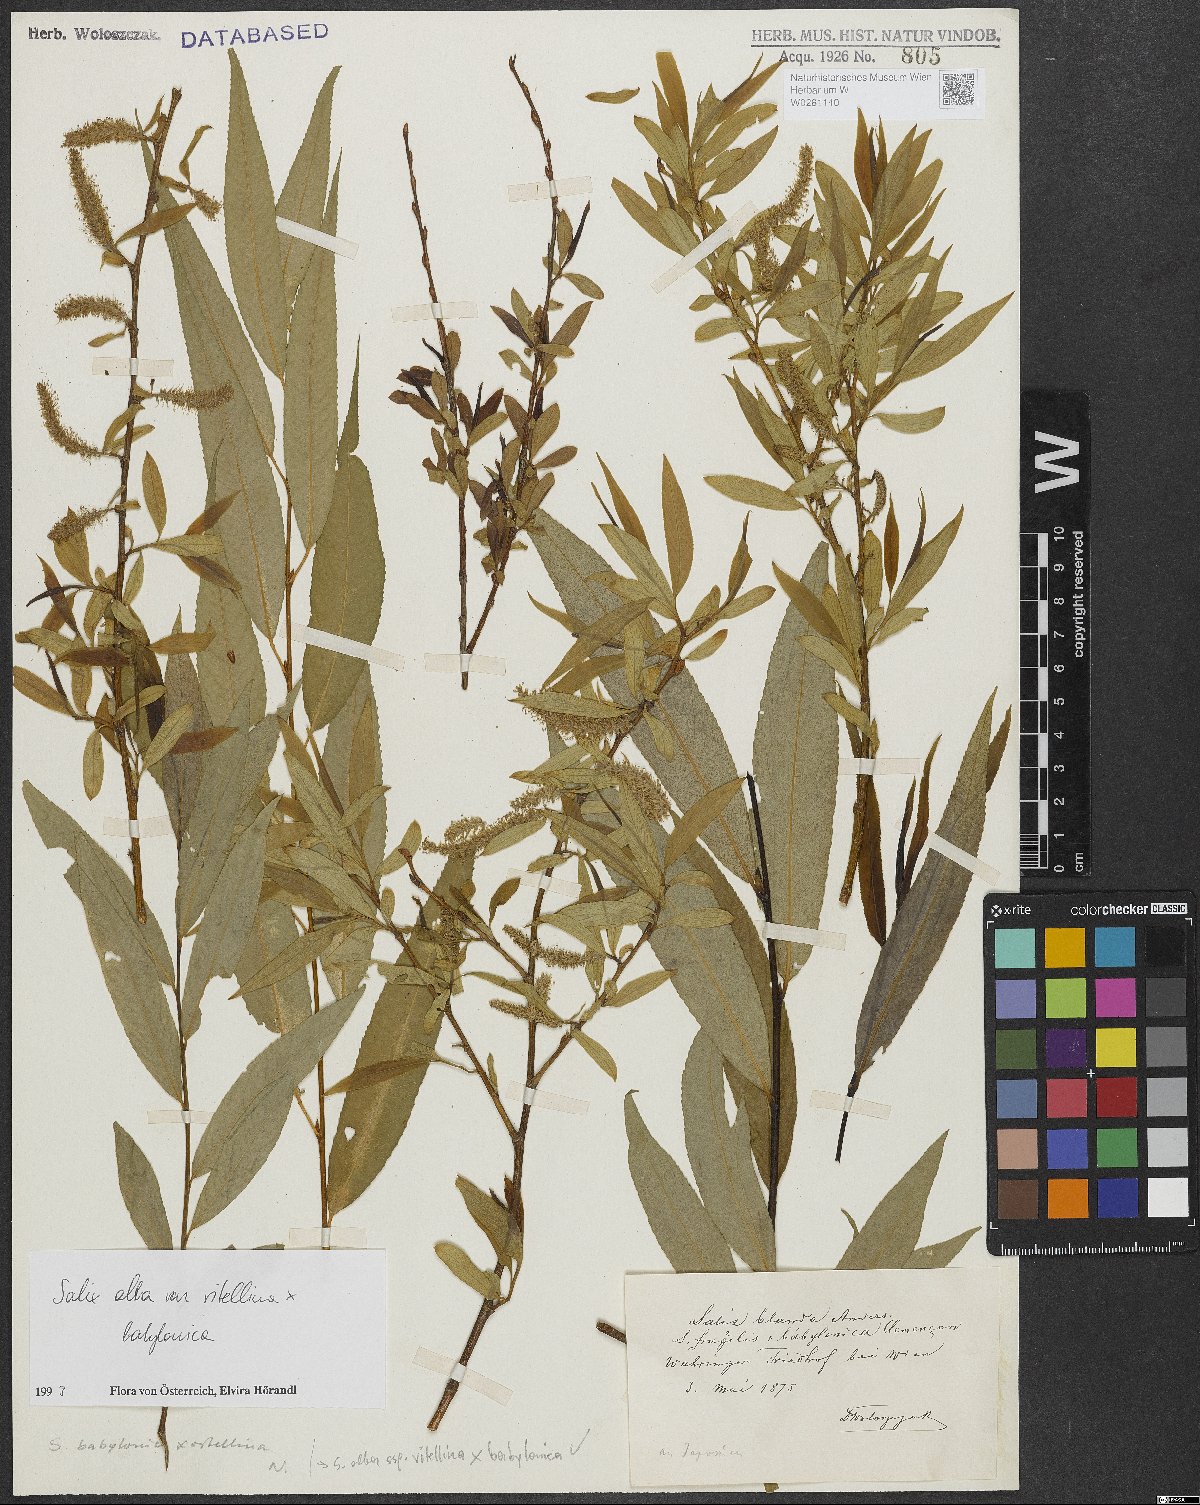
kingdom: Plantae
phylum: Tracheophyta
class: Magnoliopsida
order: Malpighiales
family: Salicaceae
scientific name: Salicaceae
